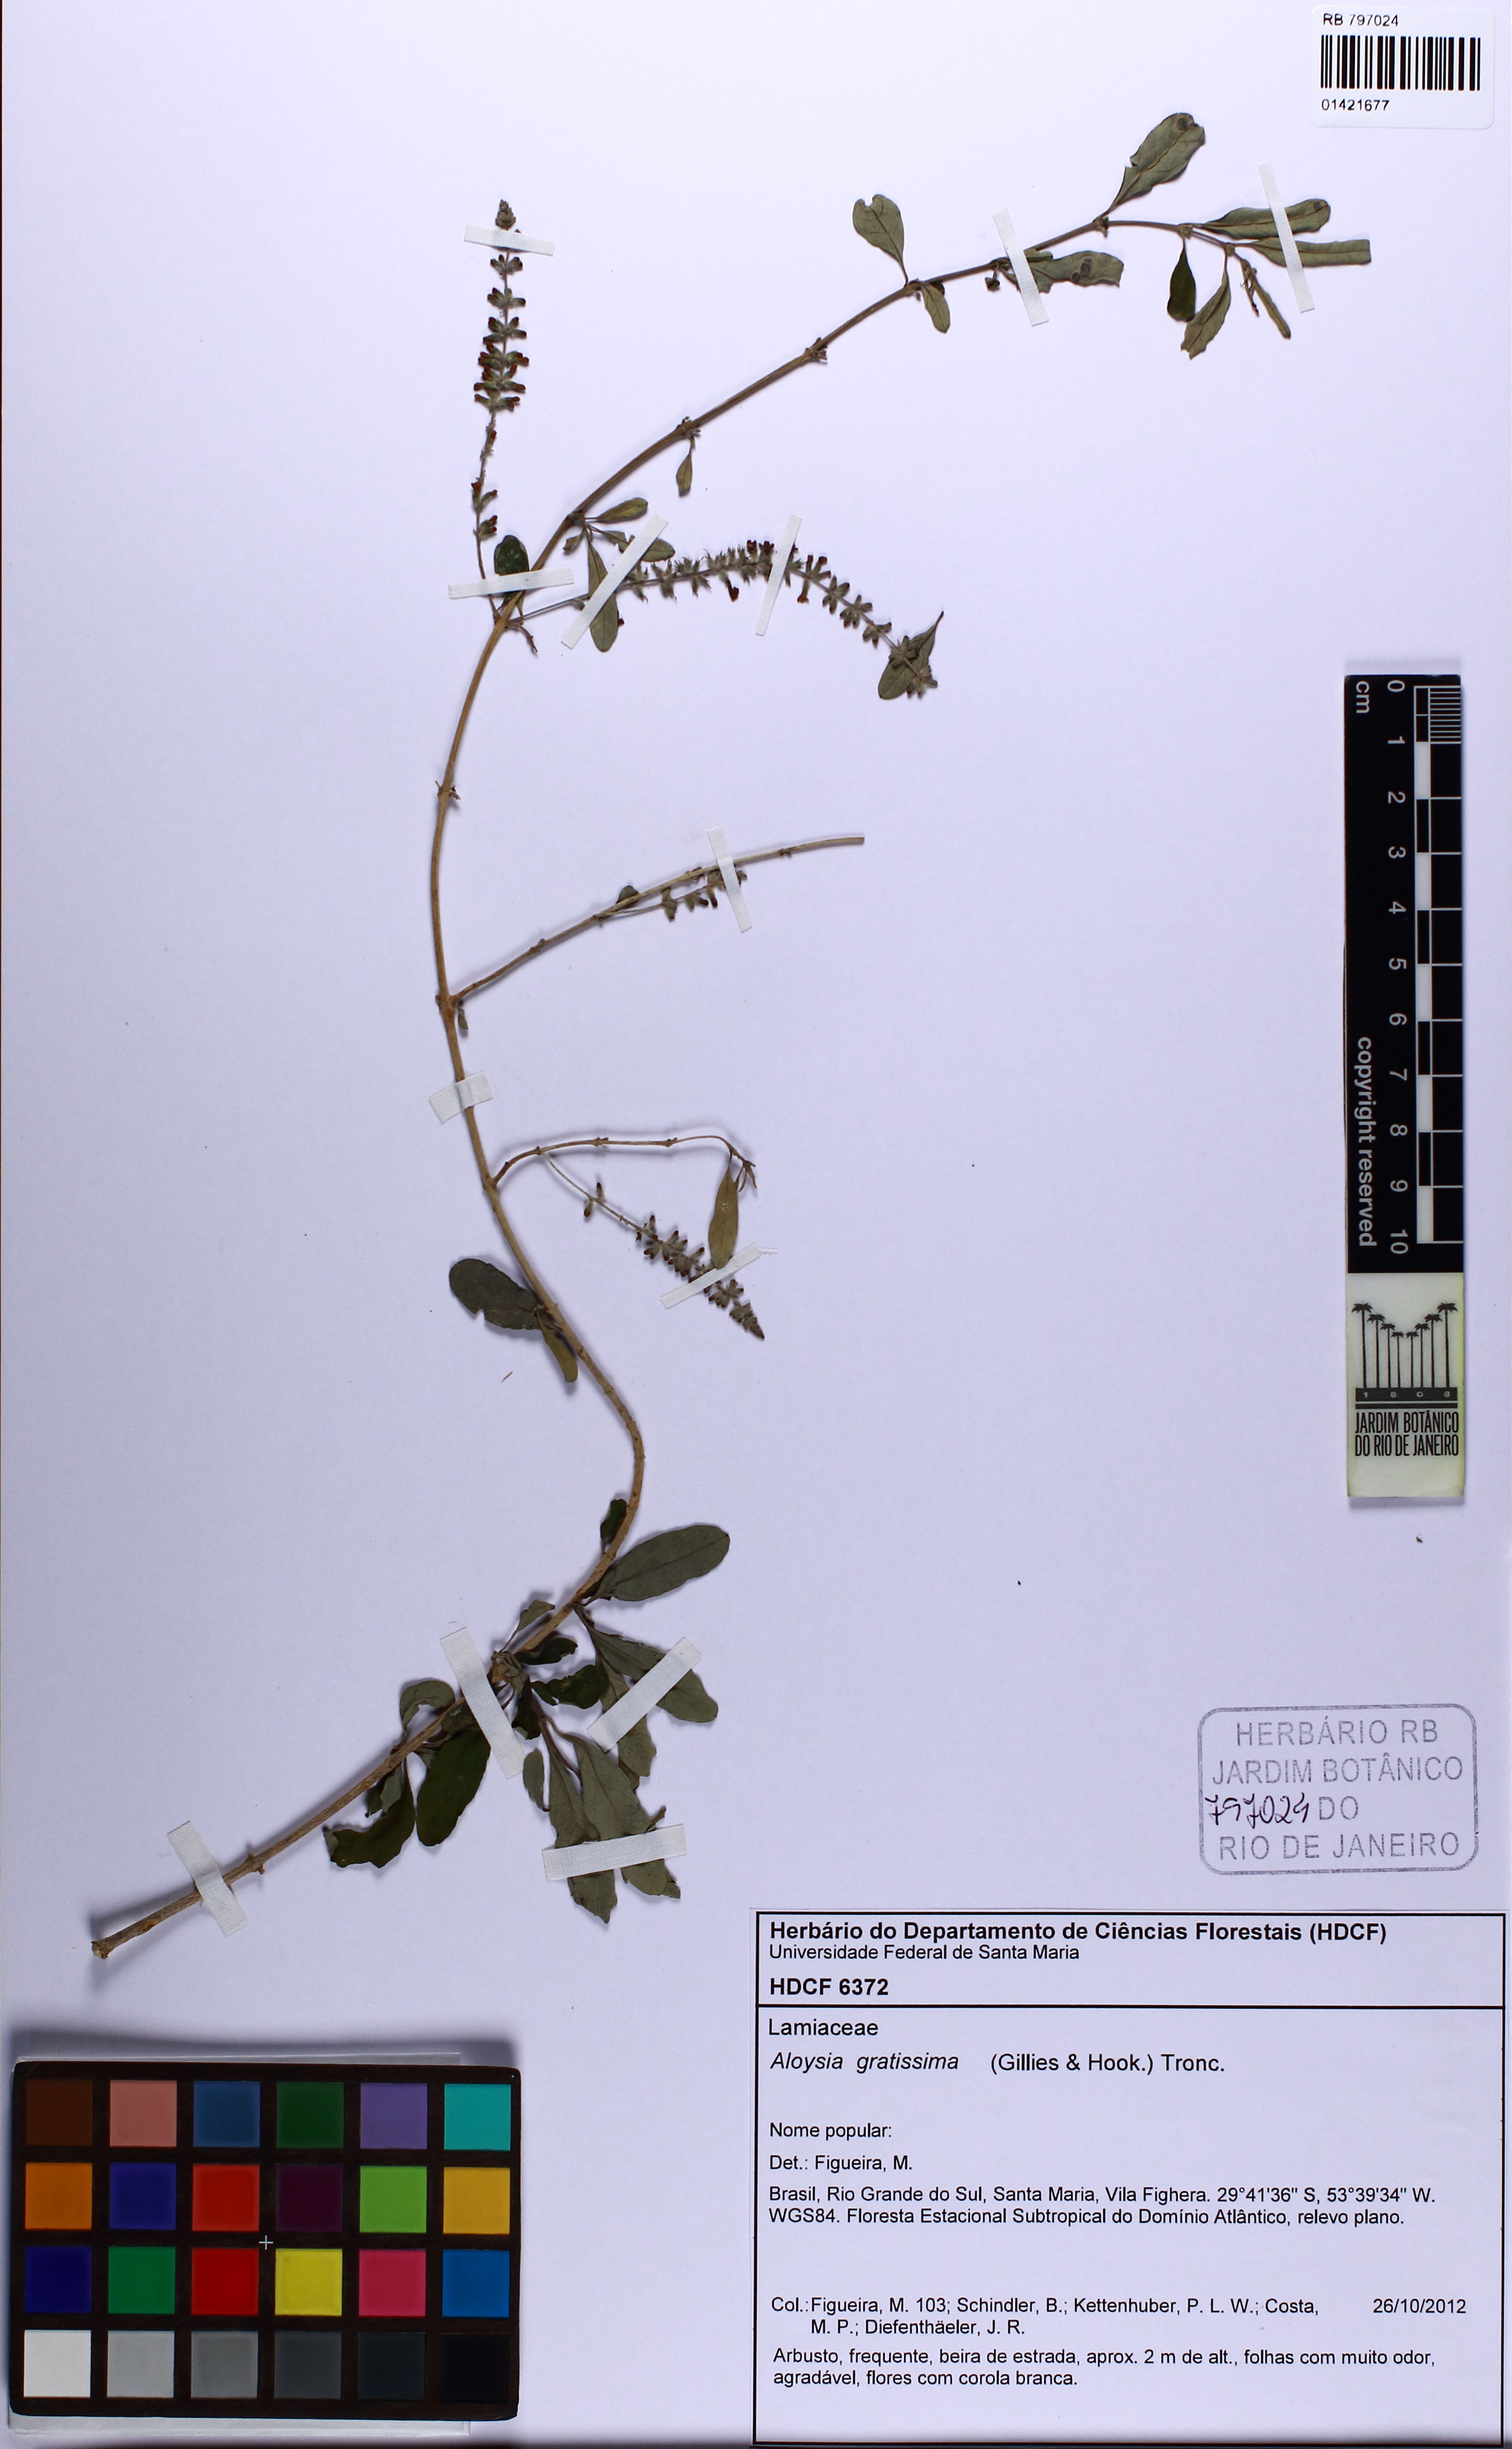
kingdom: Plantae
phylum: Tracheophyta
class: Magnoliopsida
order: Lamiales
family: Verbenaceae
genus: Aloysia
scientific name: Aloysia gratissima
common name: Common bee-brush
